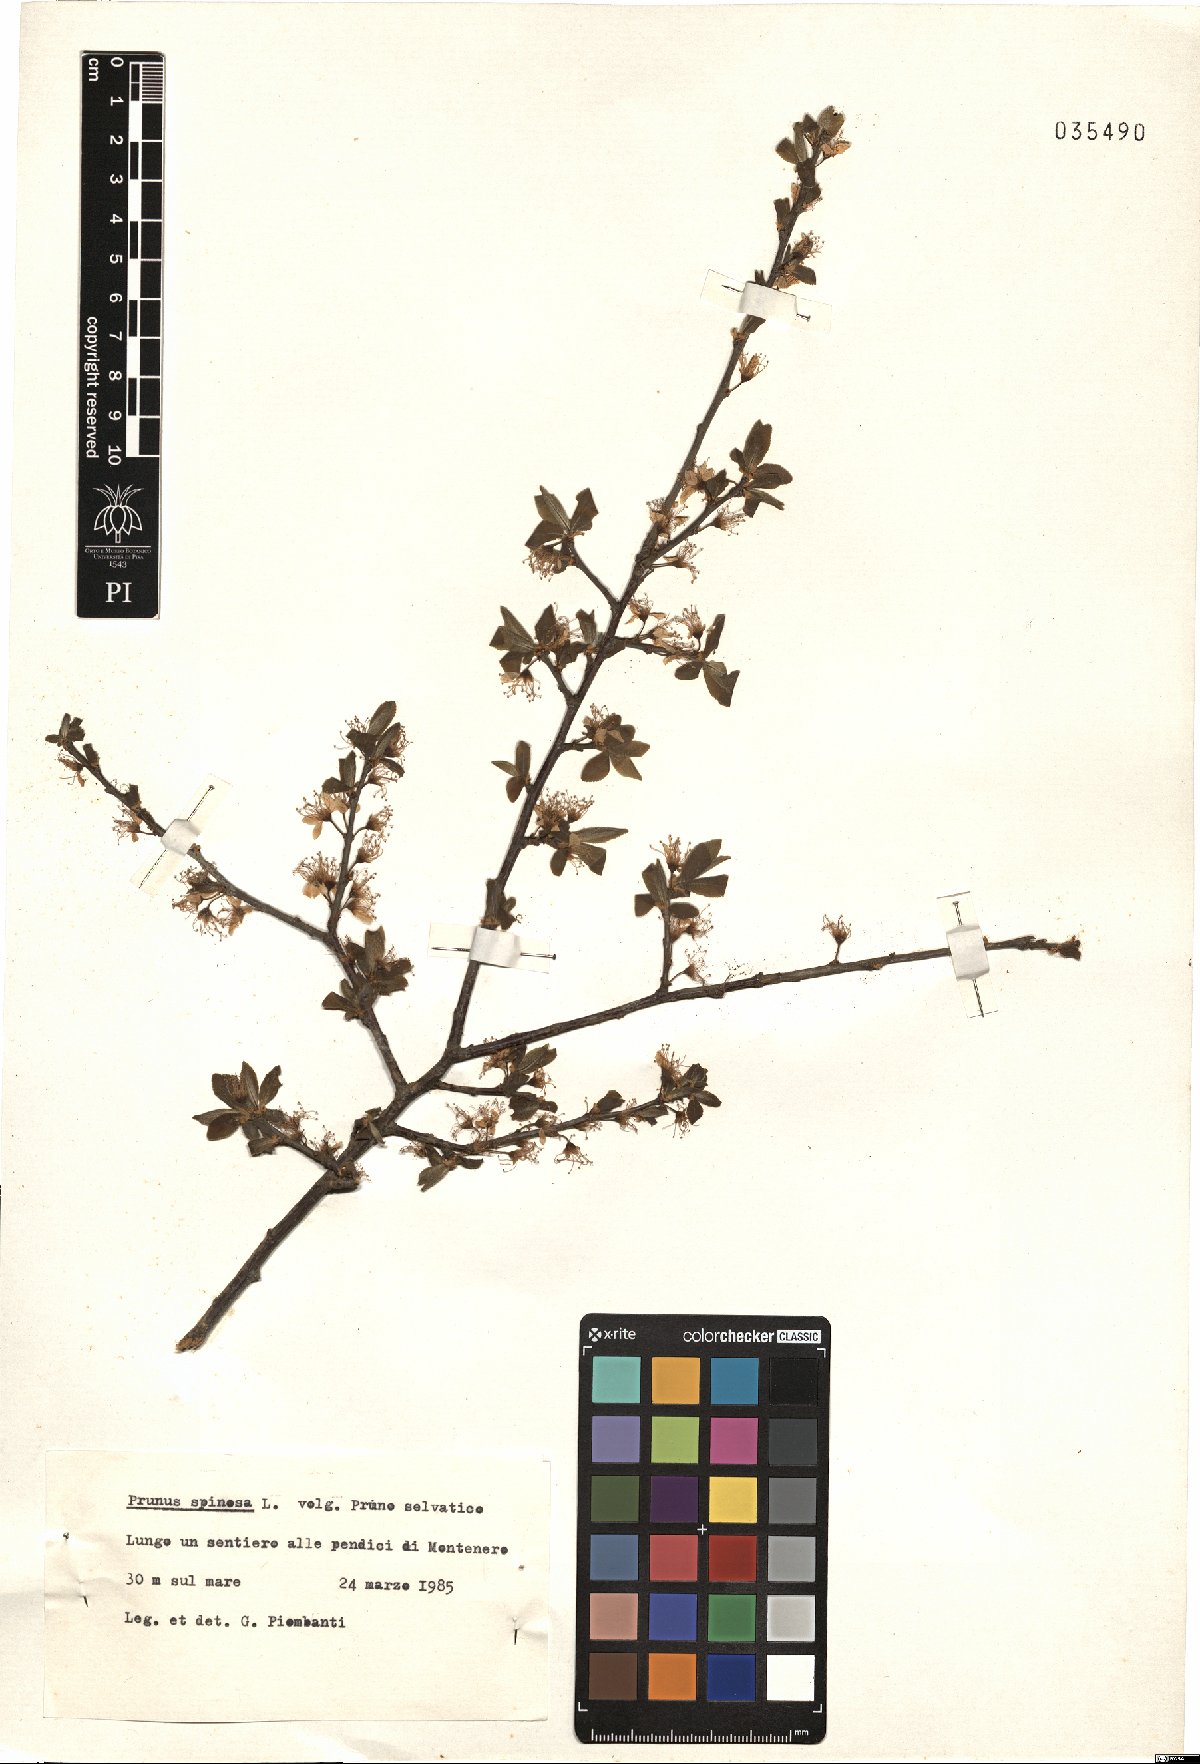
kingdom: Plantae
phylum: Tracheophyta
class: Magnoliopsida
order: Rosales
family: Rosaceae
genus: Prunus
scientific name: Prunus spinosa
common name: Blackthorn
